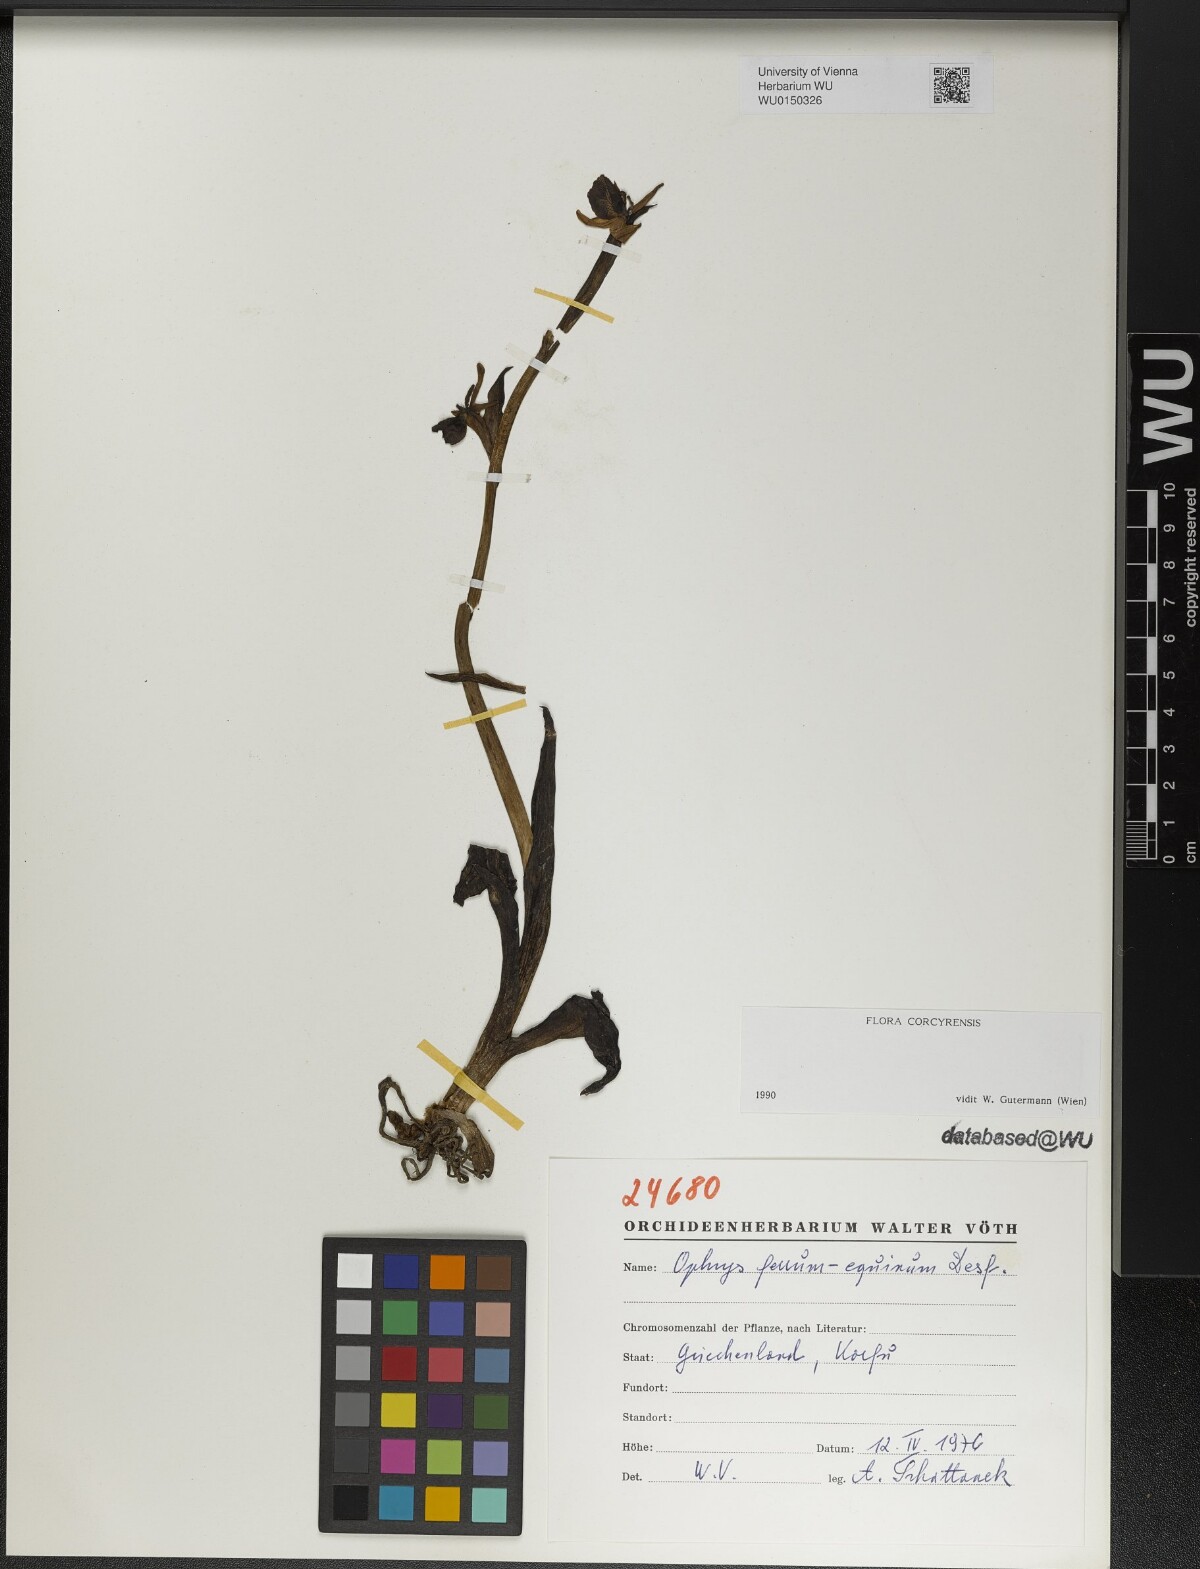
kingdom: Plantae
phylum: Tracheophyta
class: Liliopsida
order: Asparagales
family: Orchidaceae
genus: Ophrys
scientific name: Ophrys ferrum-equinum
